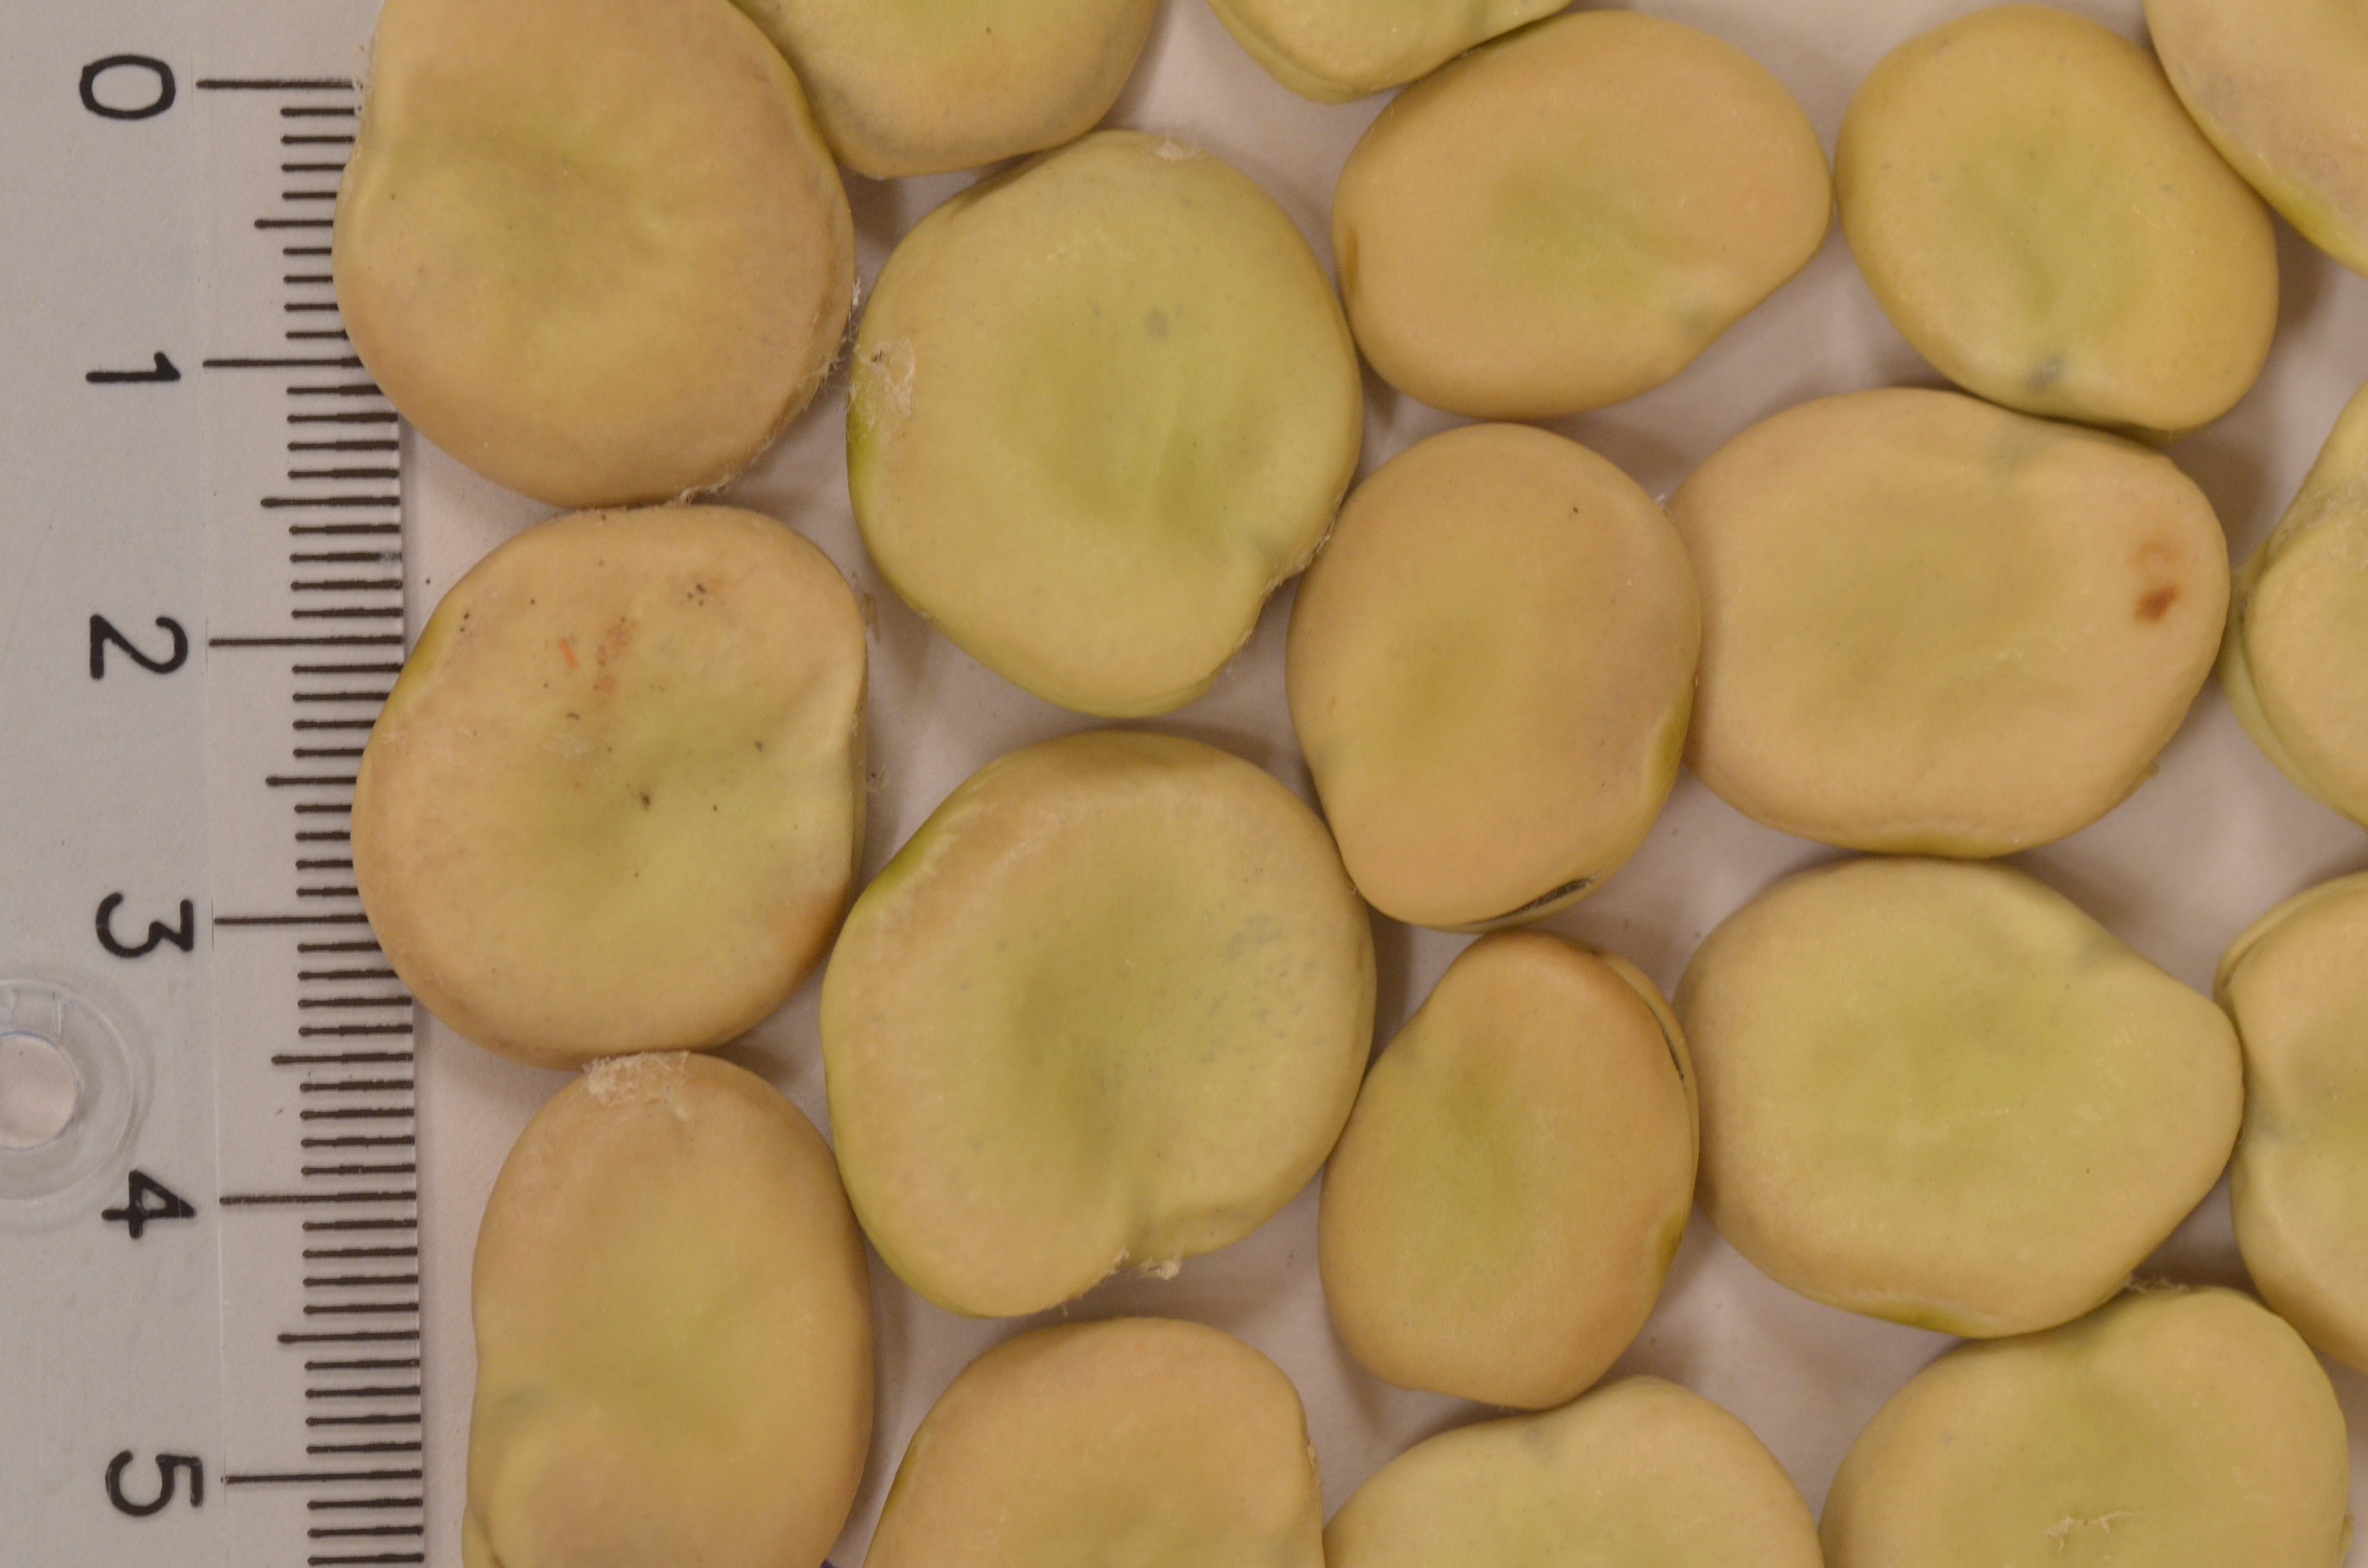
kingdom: Plantae
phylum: Tracheophyta
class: Magnoliopsida
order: Fabales
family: Fabaceae
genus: Vicia
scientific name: Vicia faba
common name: Broad bean
